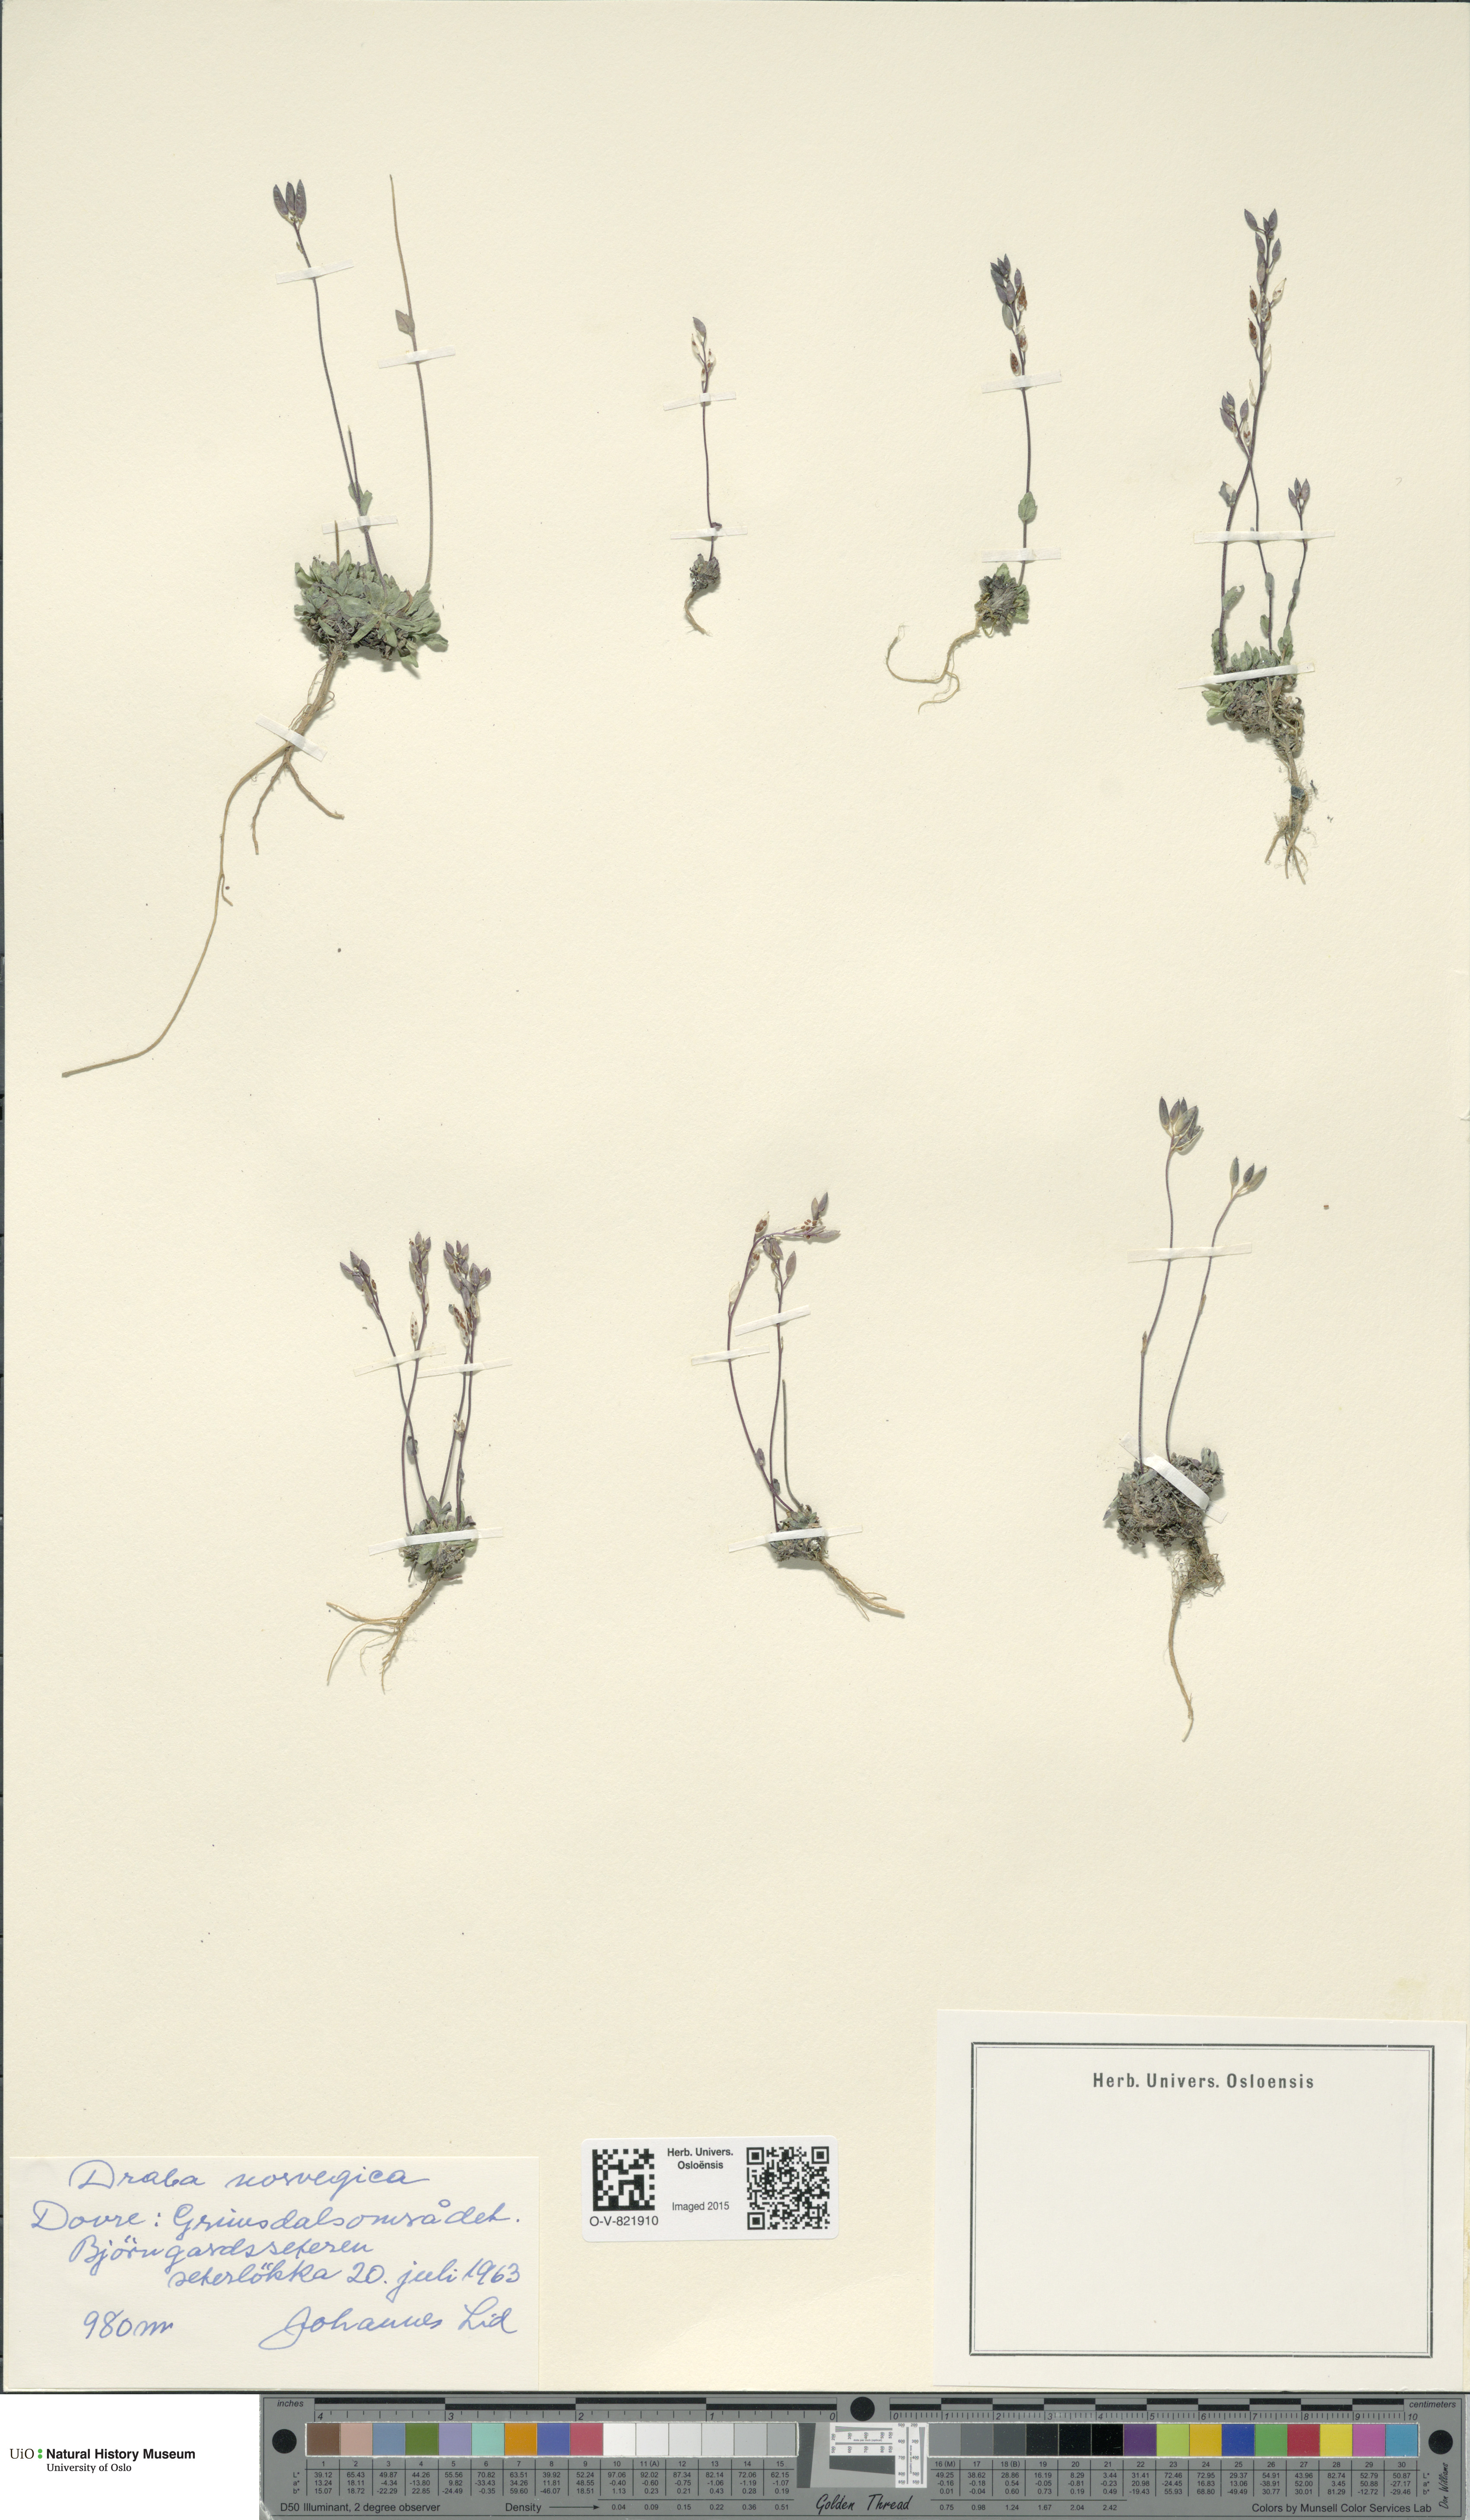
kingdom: Plantae
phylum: Tracheophyta
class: Magnoliopsida
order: Brassicales
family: Brassicaceae
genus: Draba
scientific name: Draba norvegica
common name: Rock whitlowgrass
